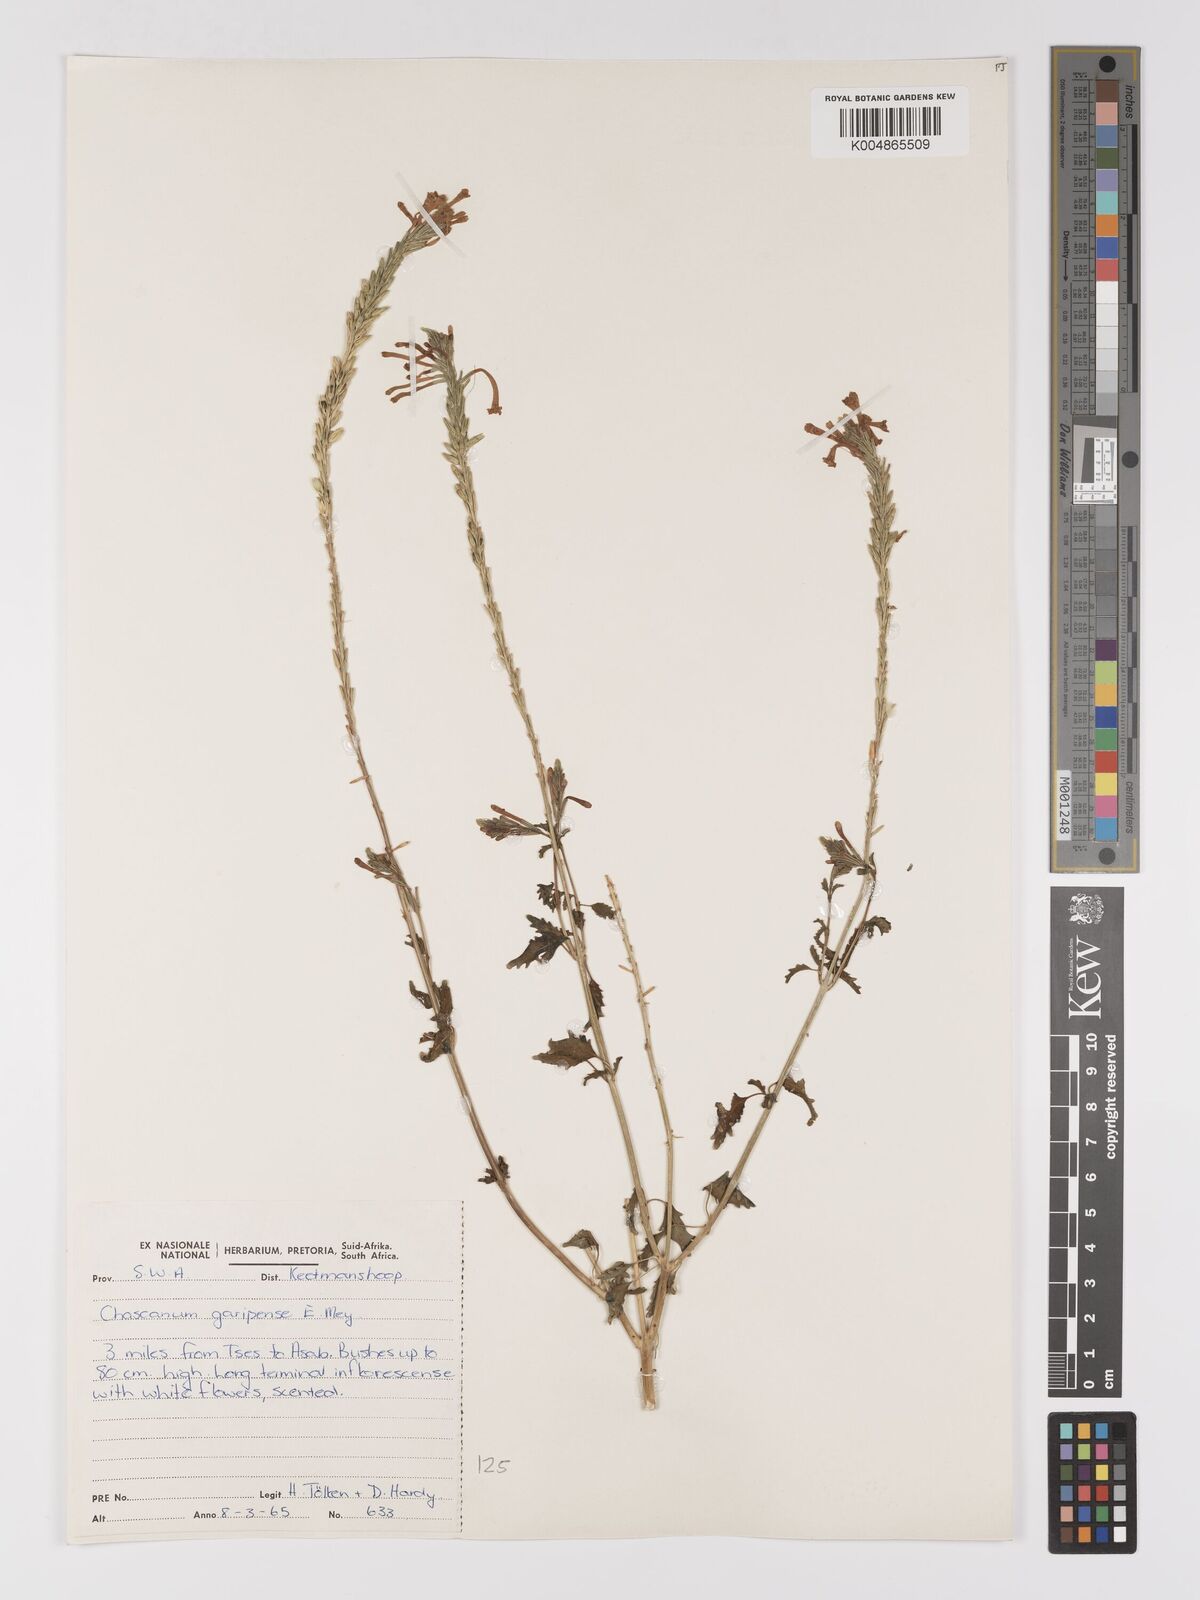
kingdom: Plantae
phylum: Tracheophyta
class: Magnoliopsida
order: Lamiales
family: Verbenaceae
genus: Chascanum
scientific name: Chascanum garipense
